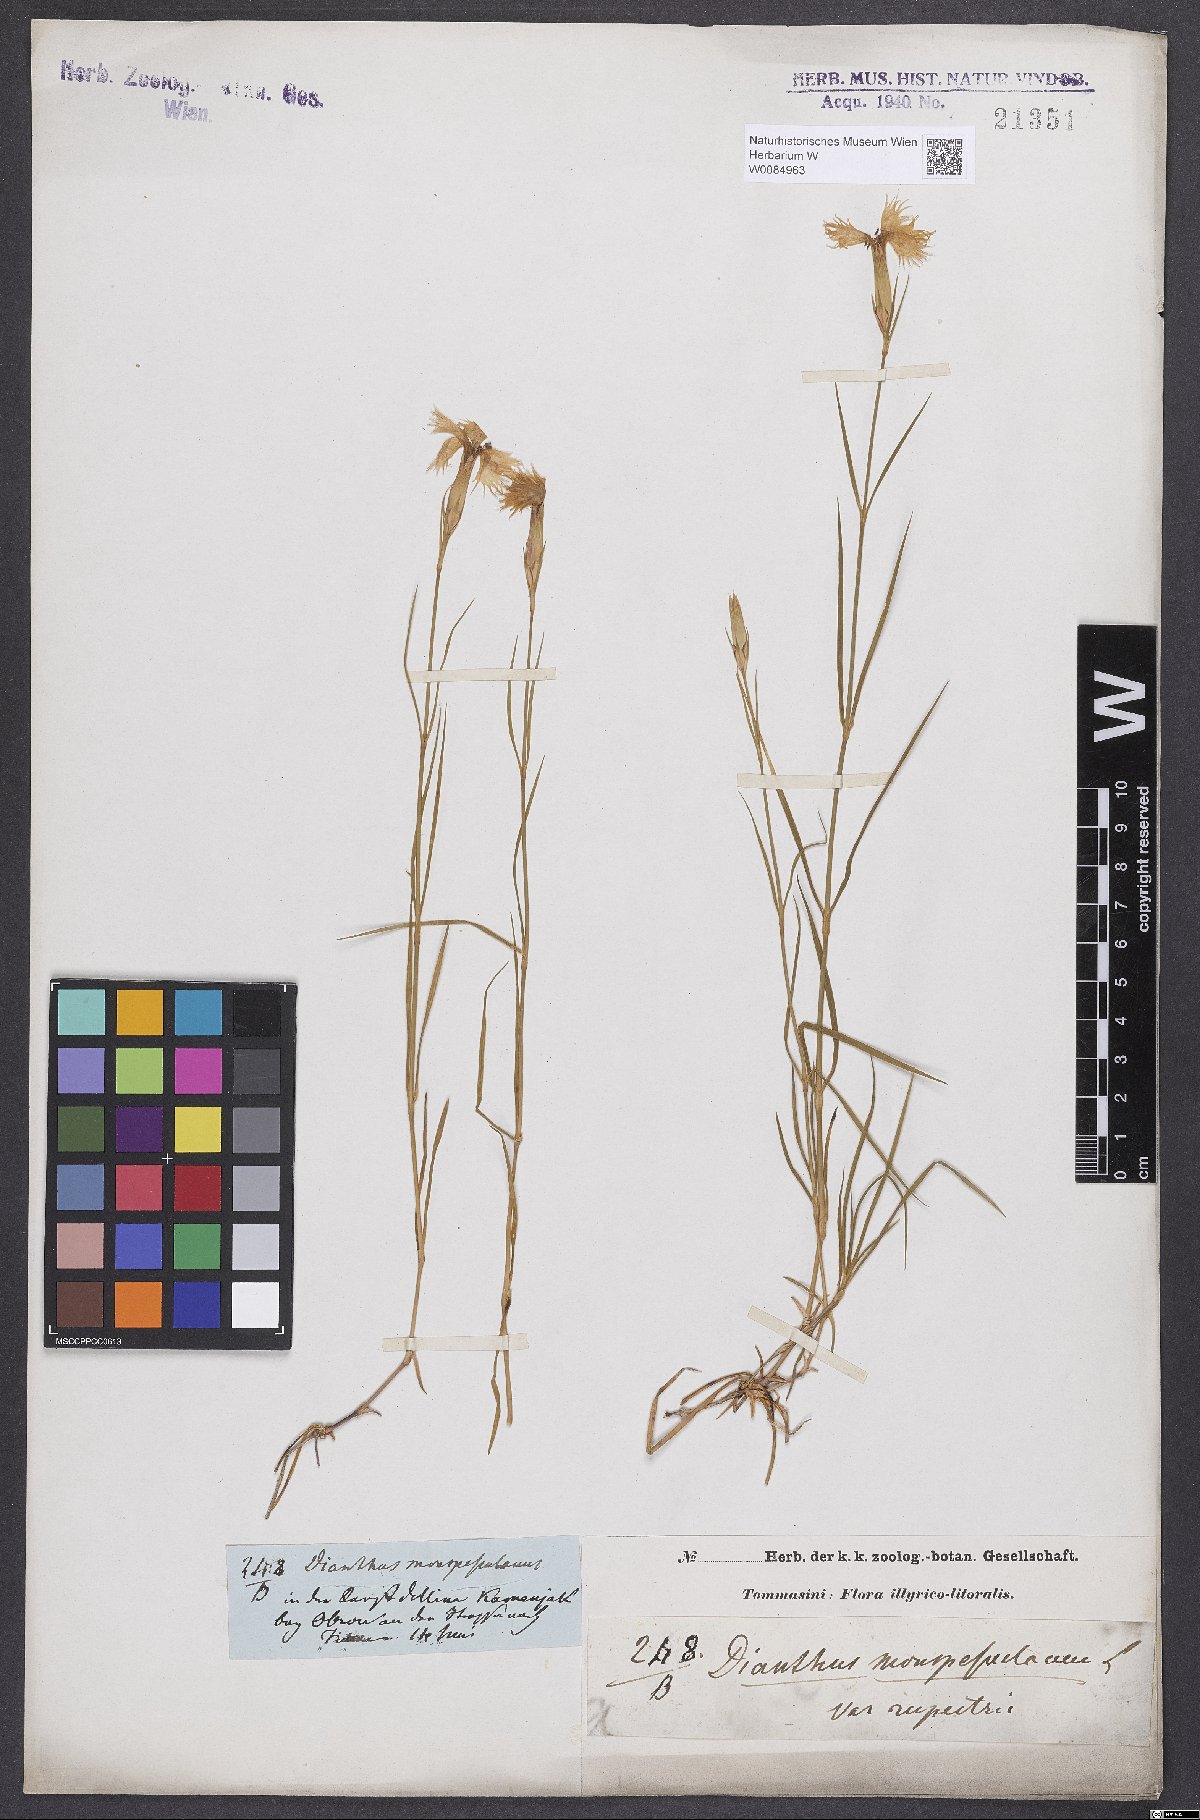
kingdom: Plantae
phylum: Tracheophyta
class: Magnoliopsida
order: Caryophyllales
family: Caryophyllaceae
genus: Dianthus
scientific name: Dianthus hyssopifolius
